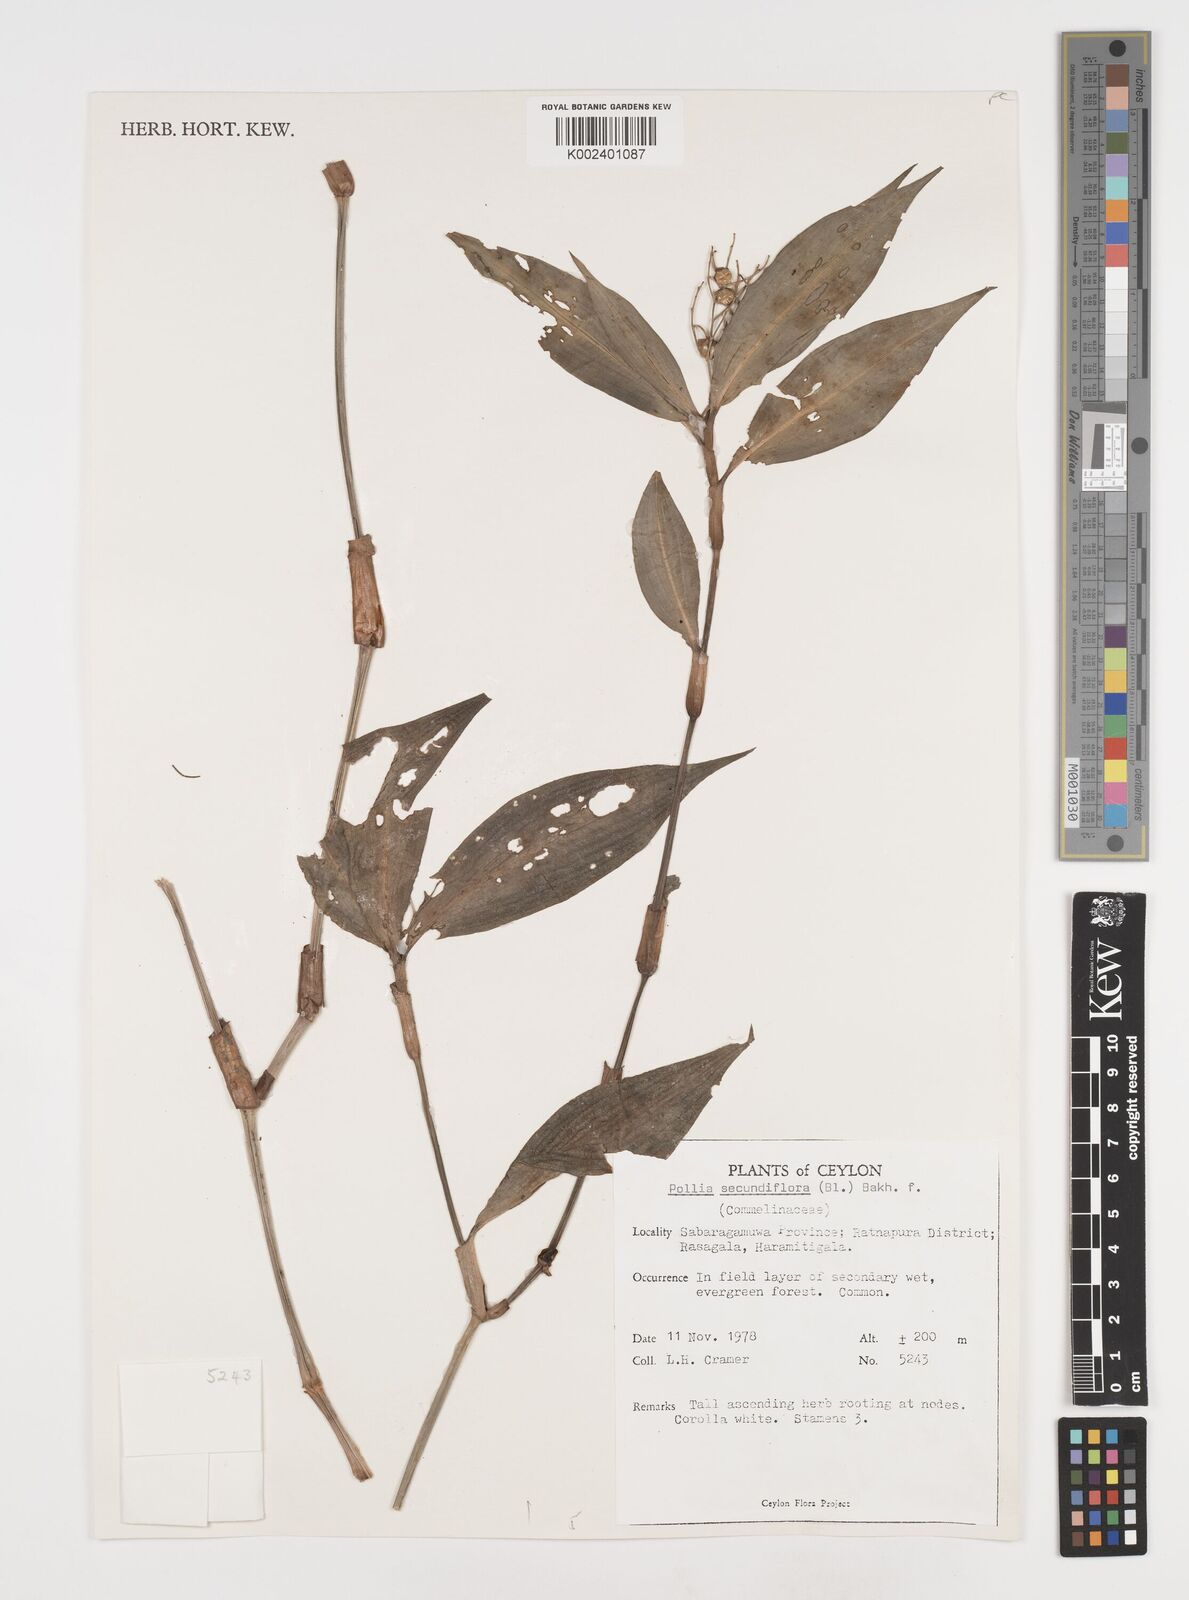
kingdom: Plantae
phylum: Tracheophyta
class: Liliopsida
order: Commelinales
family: Commelinaceae
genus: Pollia
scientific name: Pollia secundiflora
